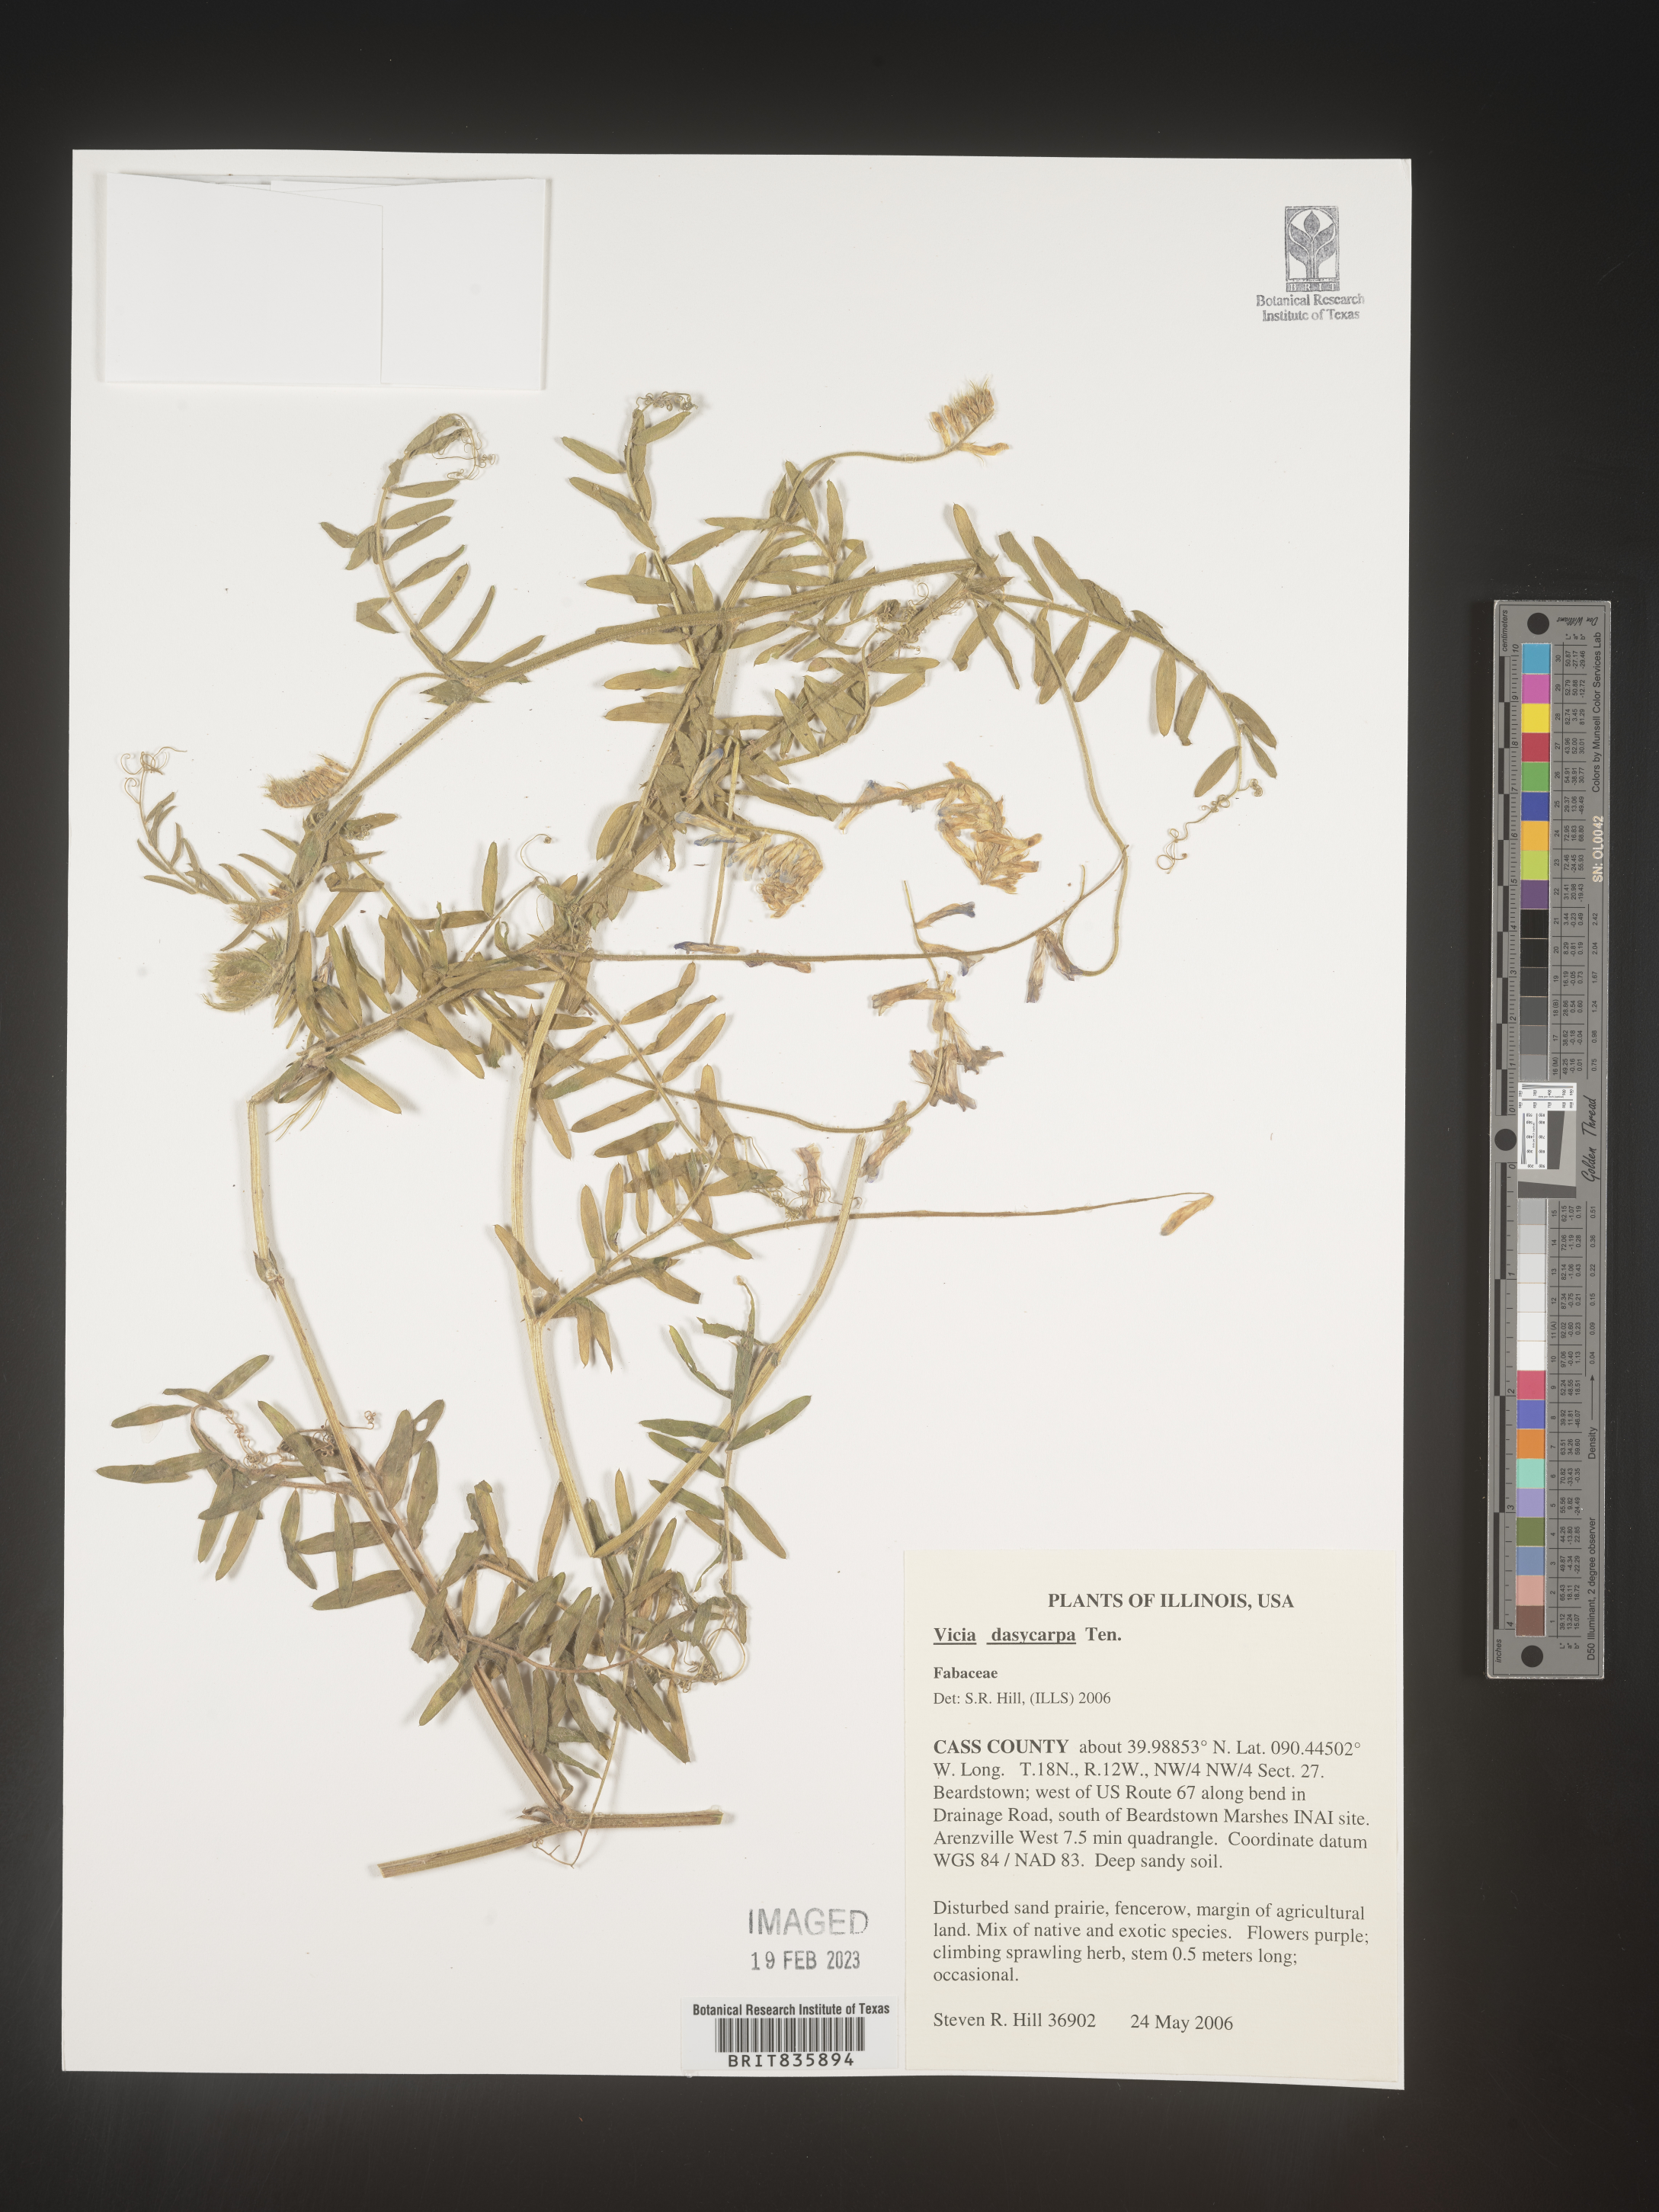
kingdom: Plantae
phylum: Tracheophyta
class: Magnoliopsida
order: Fabales
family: Fabaceae
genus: Vicia
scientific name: Vicia villosa
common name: Fodder vetch
